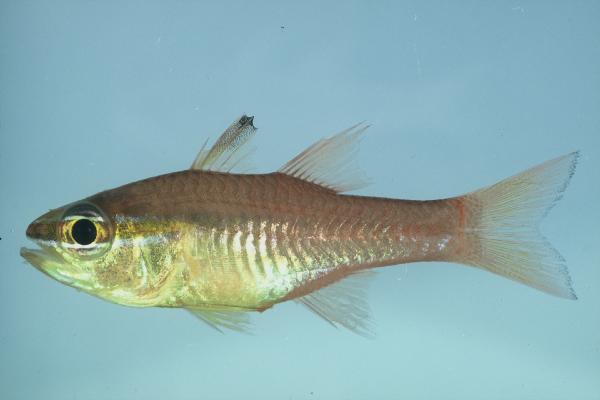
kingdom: Animalia
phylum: Chordata
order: Perciformes
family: Apogonidae
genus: Ostorhinchus
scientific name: Ostorhinchus apogonoides
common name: Goldbelly cardinalfish
